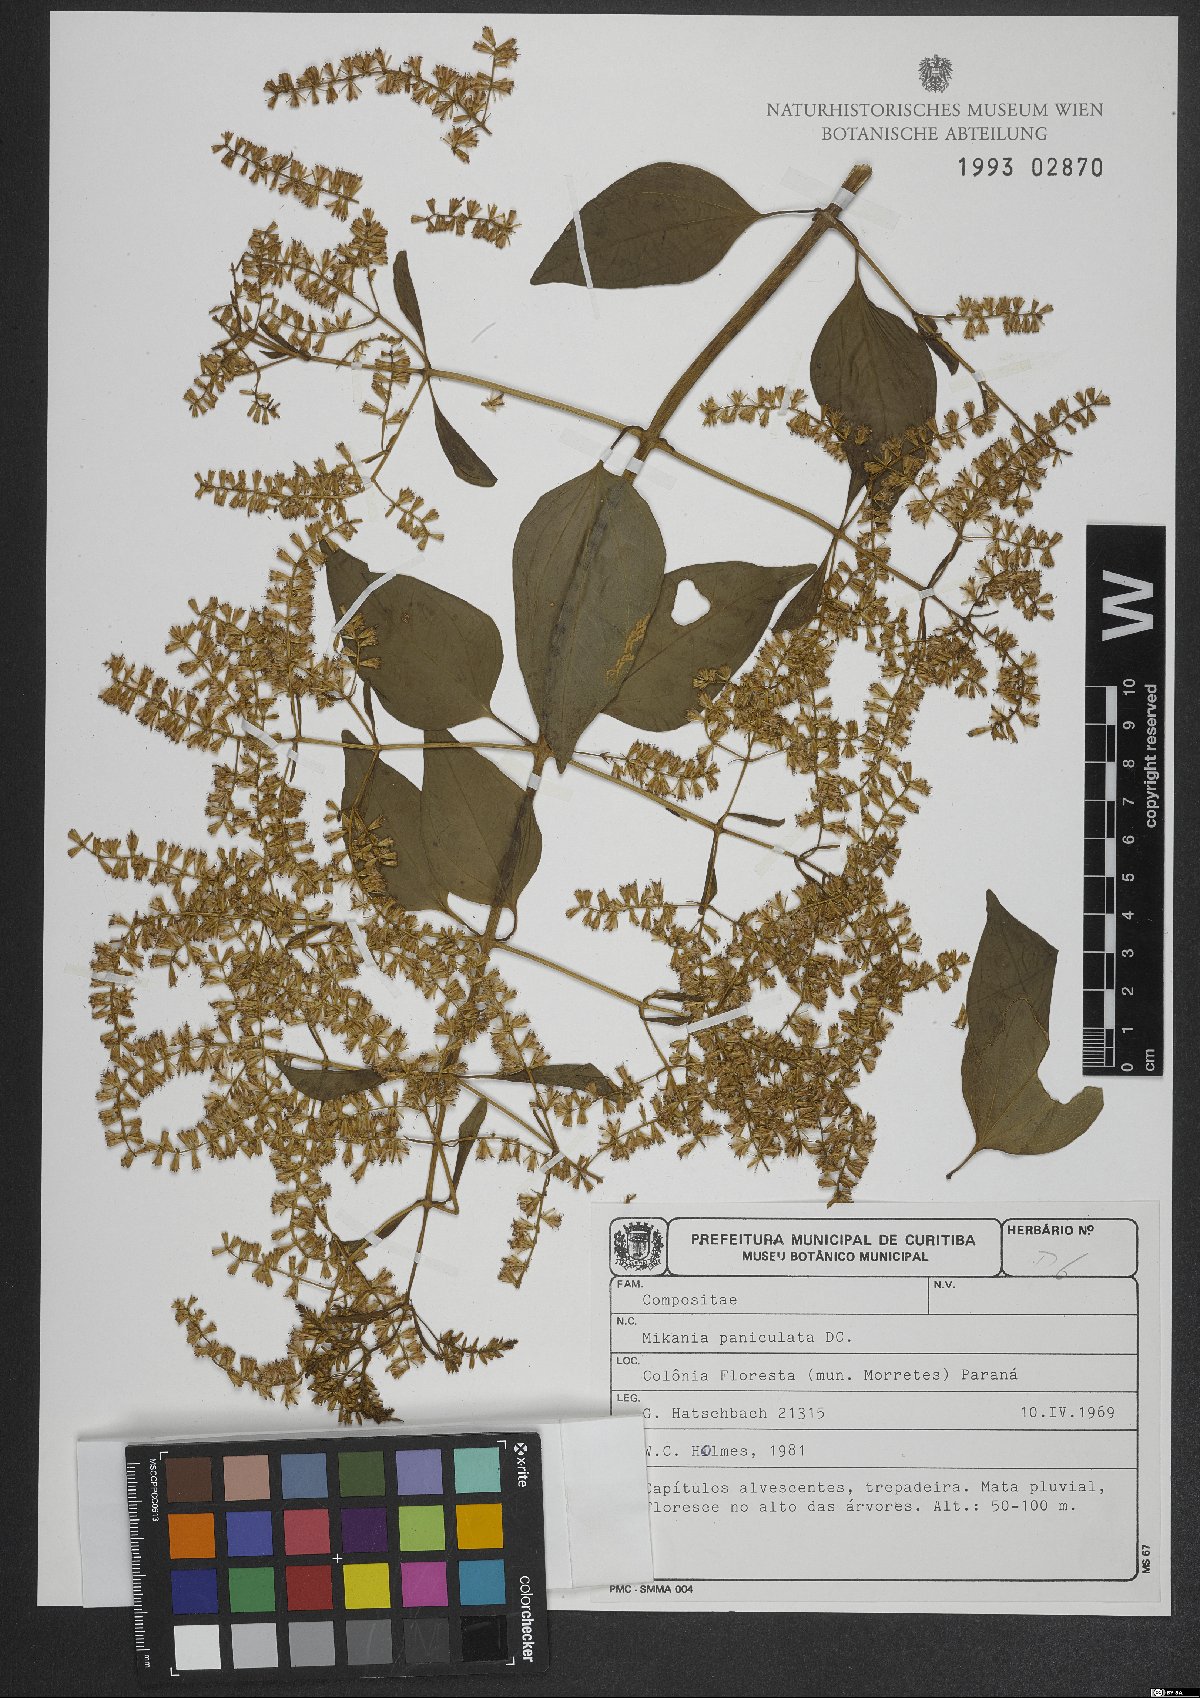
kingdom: Plantae
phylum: Tracheophyta
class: Magnoliopsida
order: Asterales
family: Asteraceae
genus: Mikania
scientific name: Mikania paniculata
